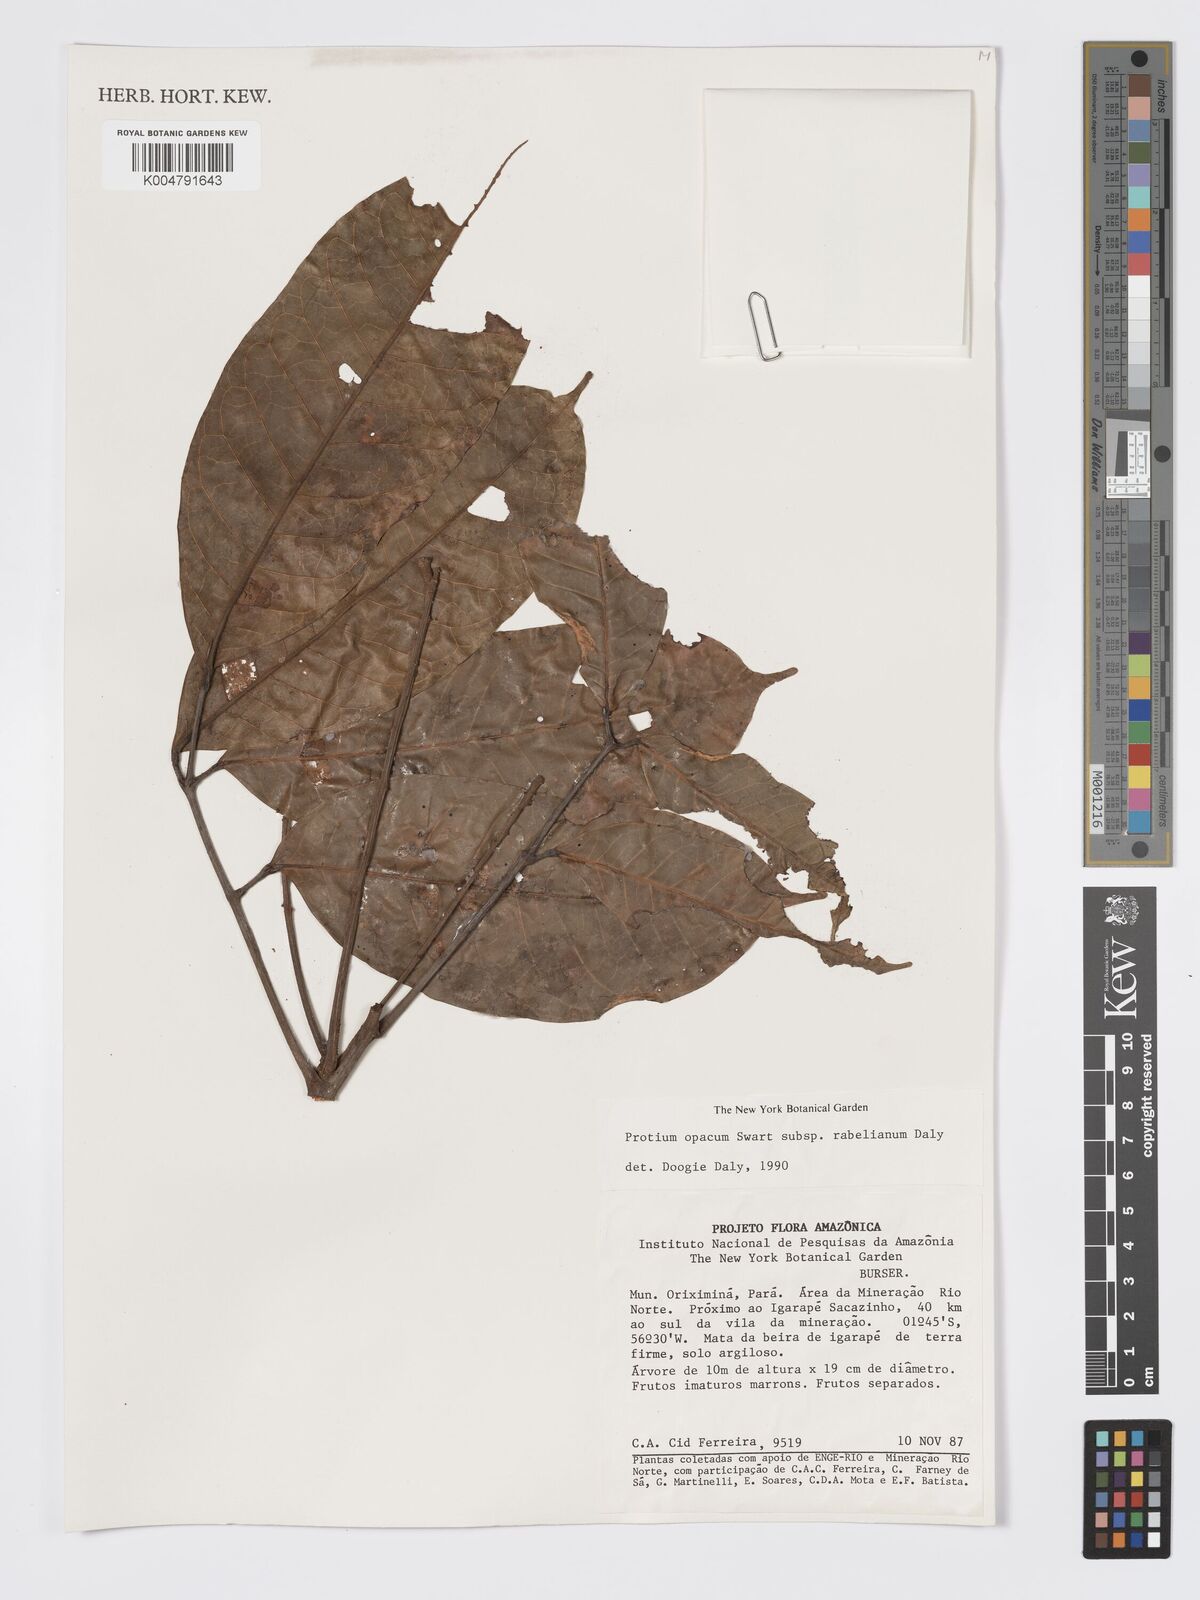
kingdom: Plantae
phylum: Tracheophyta
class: Magnoliopsida
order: Sapindales
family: Burseraceae
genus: Protium
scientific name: Protium opacum
